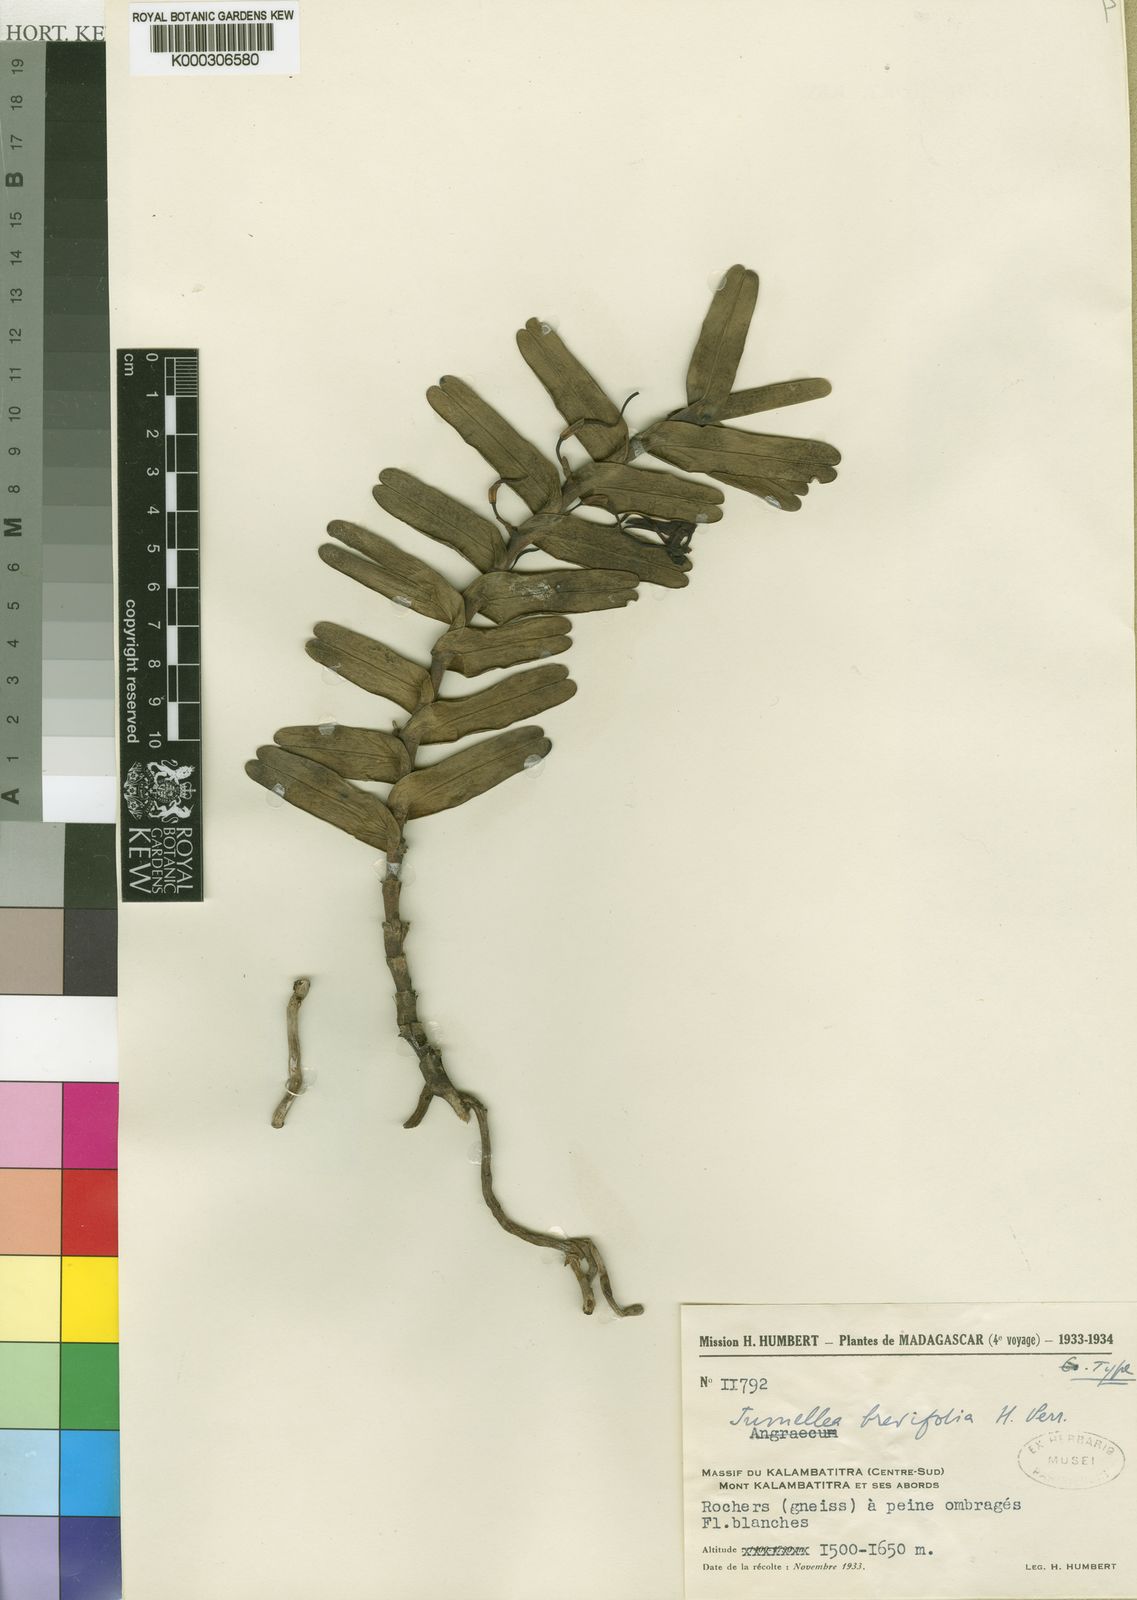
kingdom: Plantae
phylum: Tracheophyta
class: Liliopsida
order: Asparagales
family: Orchidaceae
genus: Jumellea
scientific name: Jumellea brevifolia
